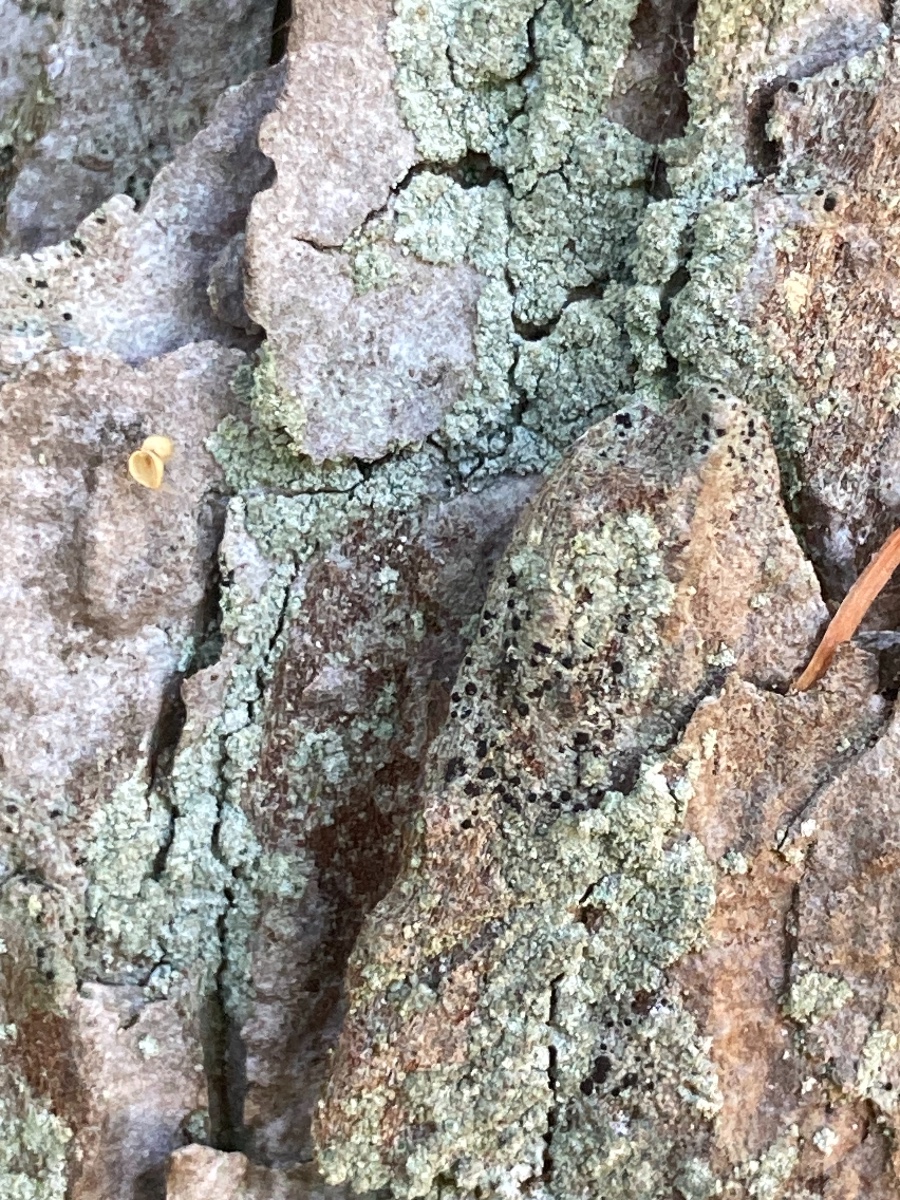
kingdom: Fungi
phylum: Ascomycota
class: Lecanoromycetes
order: Caliciales
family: Caliciaceae
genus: Amandinea
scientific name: Amandinea punctata
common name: liden sortskivelav
